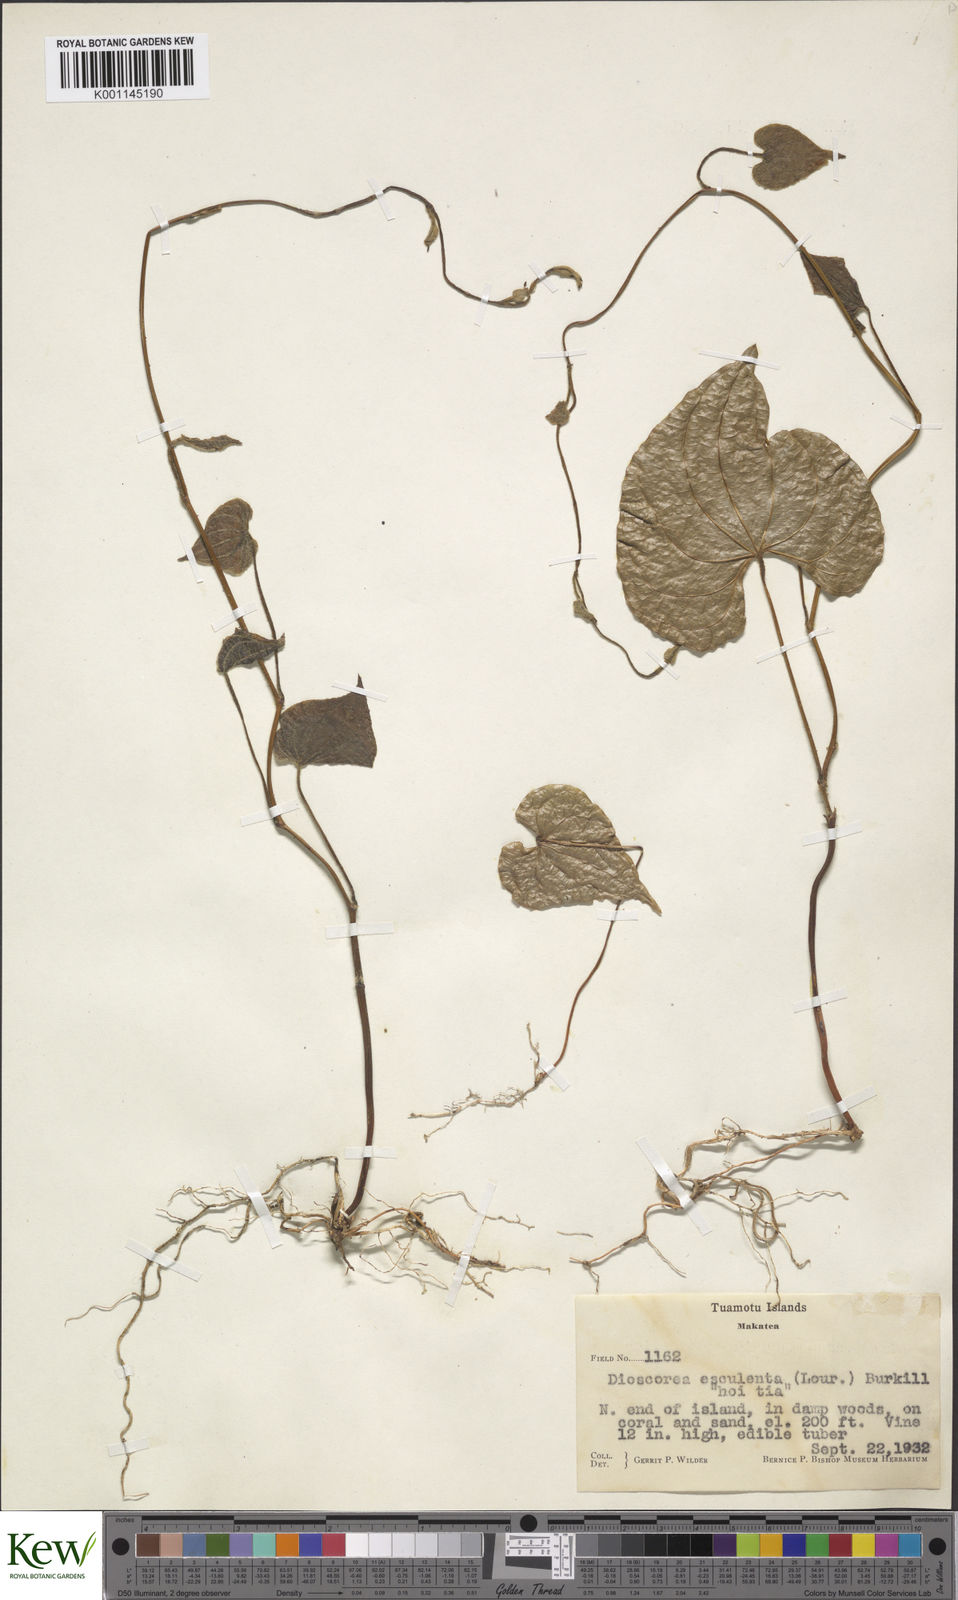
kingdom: Plantae
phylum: Tracheophyta
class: Liliopsida
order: Dioscoreales
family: Dioscoreaceae
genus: Dioscorea
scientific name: Dioscorea esculenta
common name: Chinese yam
